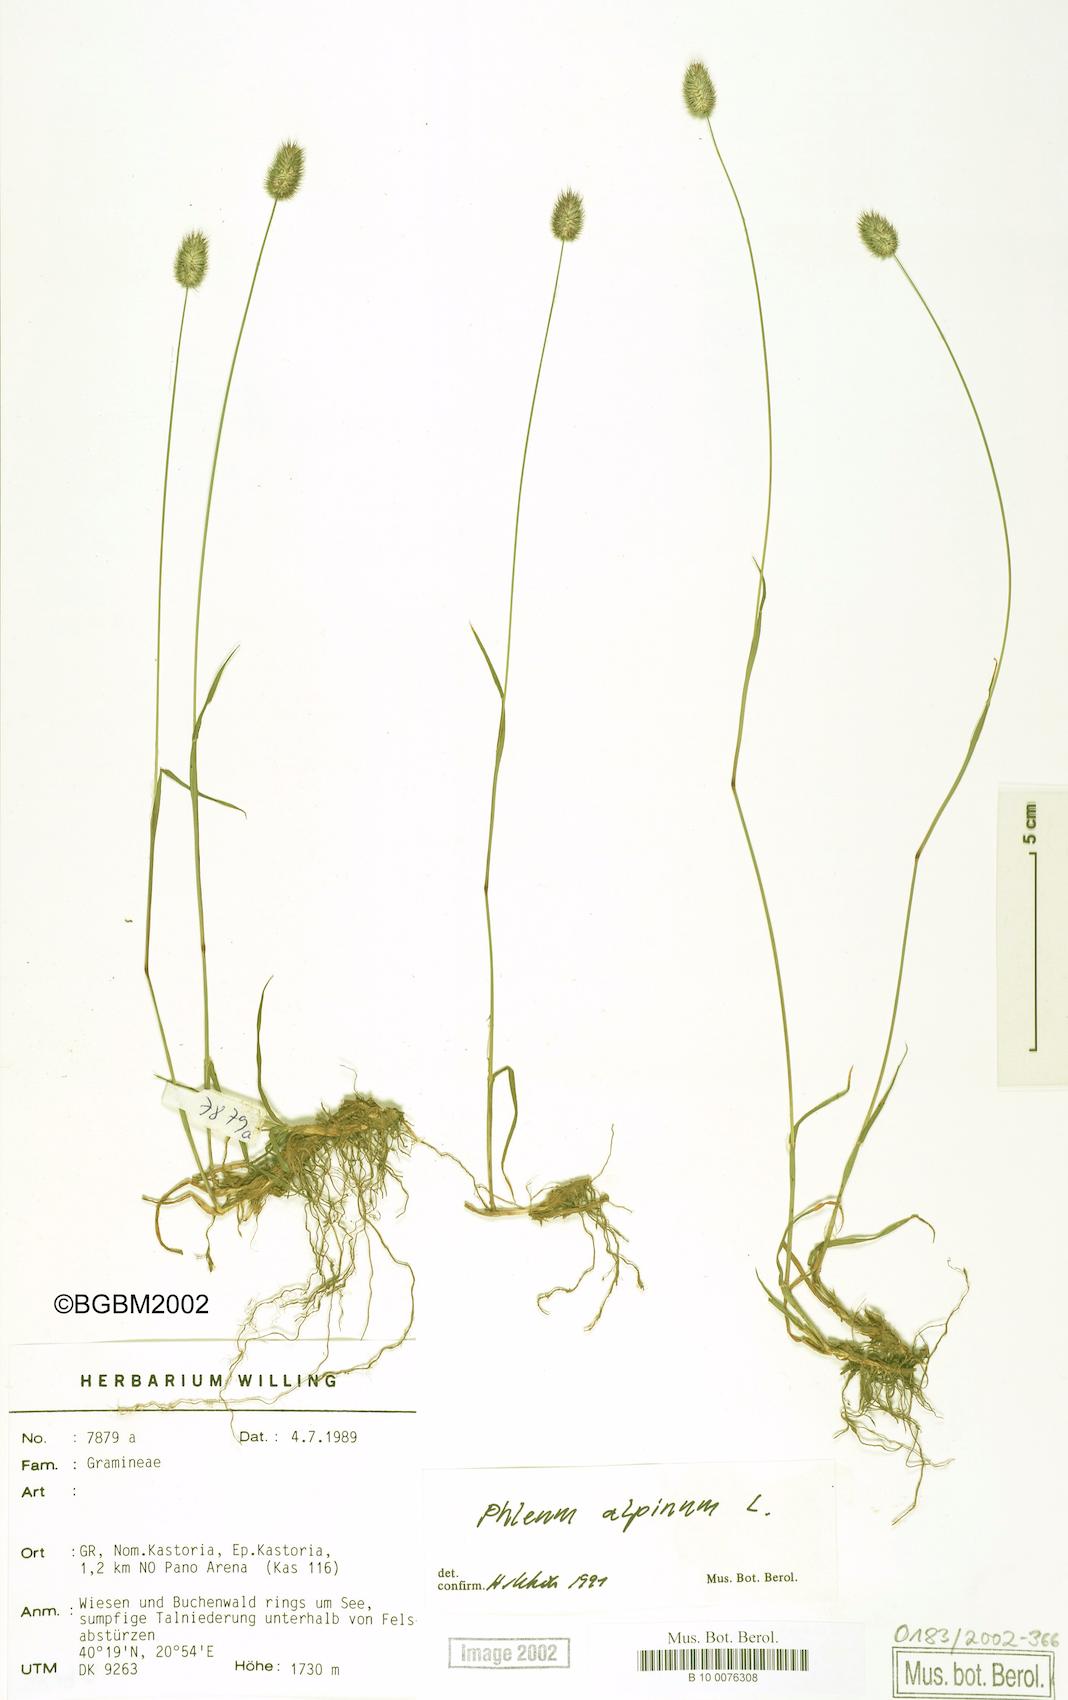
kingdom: Plantae
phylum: Tracheophyta
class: Liliopsida
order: Poales
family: Poaceae
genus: Phleum
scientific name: Phleum alpinum
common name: Alpine cat's-tail
